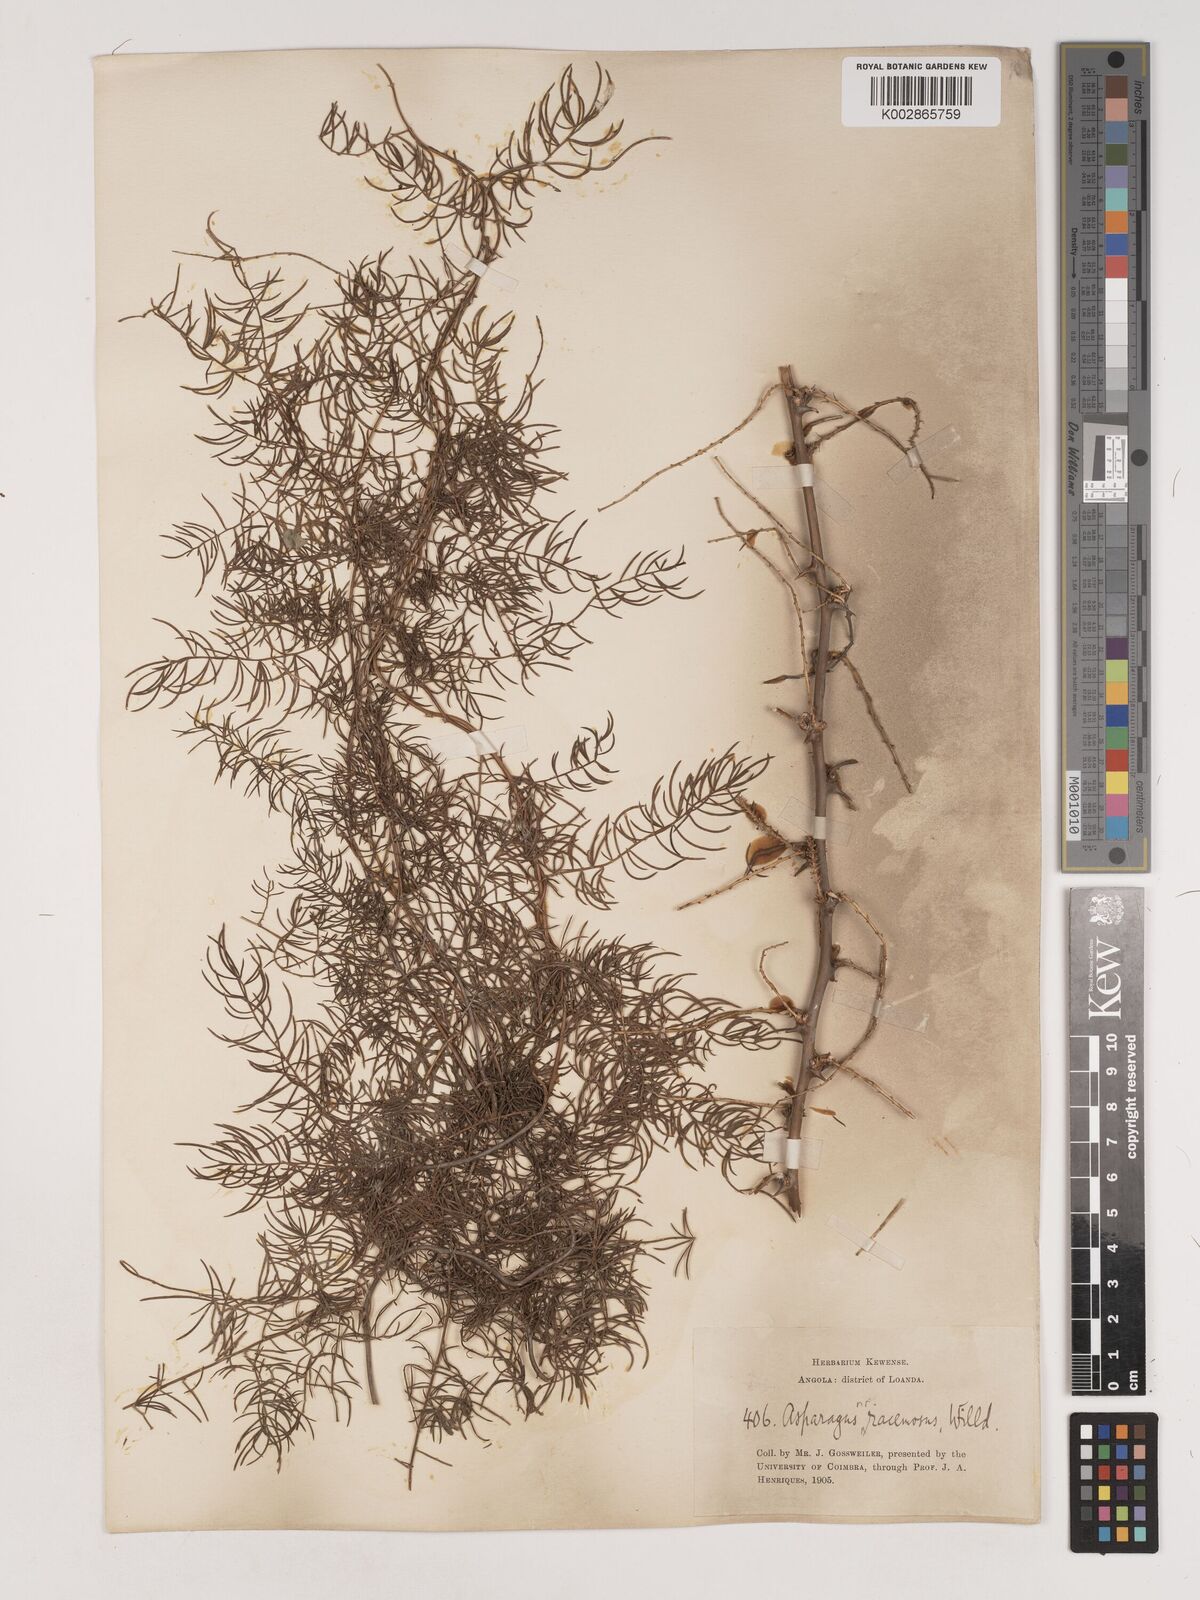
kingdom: Plantae
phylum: Tracheophyta
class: Liliopsida
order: Asparagales
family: Asparagaceae
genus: Asparagus
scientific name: Asparagus racemosus
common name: Asparagus-fern
